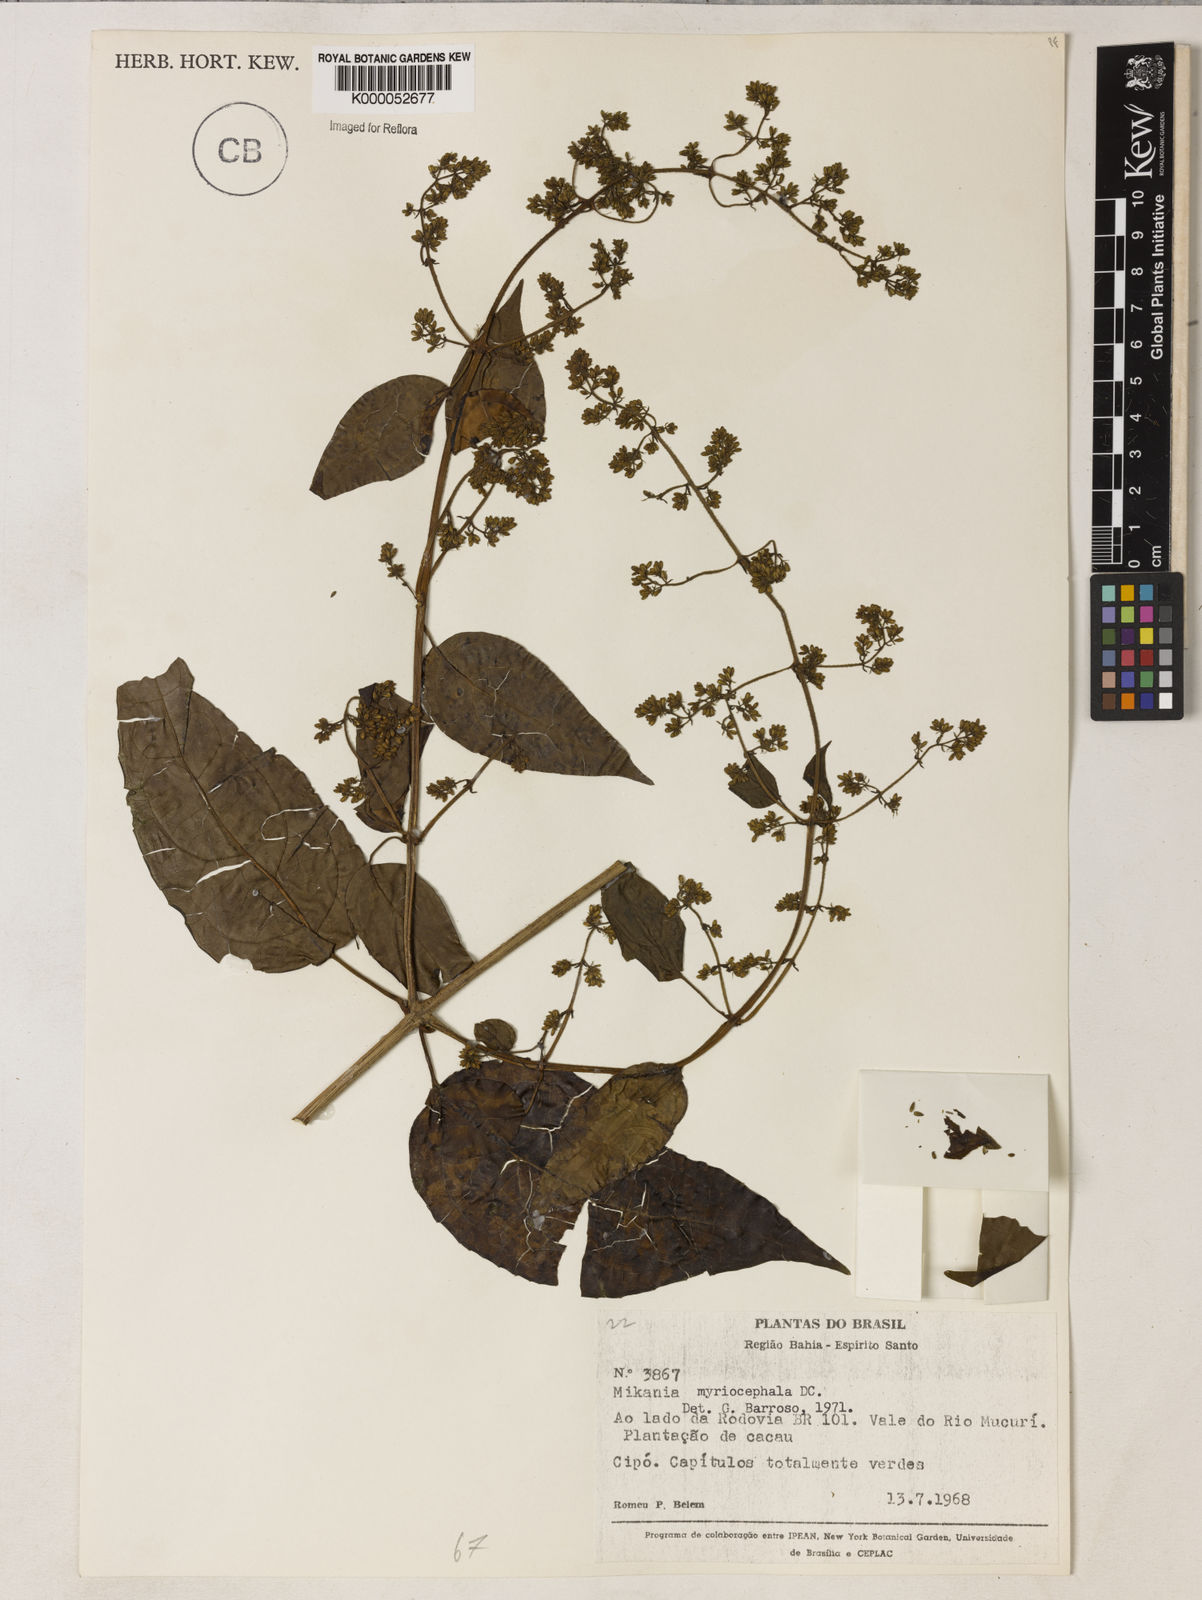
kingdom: Plantae
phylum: Tracheophyta
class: Magnoliopsida
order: Asterales
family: Asteraceae
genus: Mikania
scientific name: Mikania myriocephala
